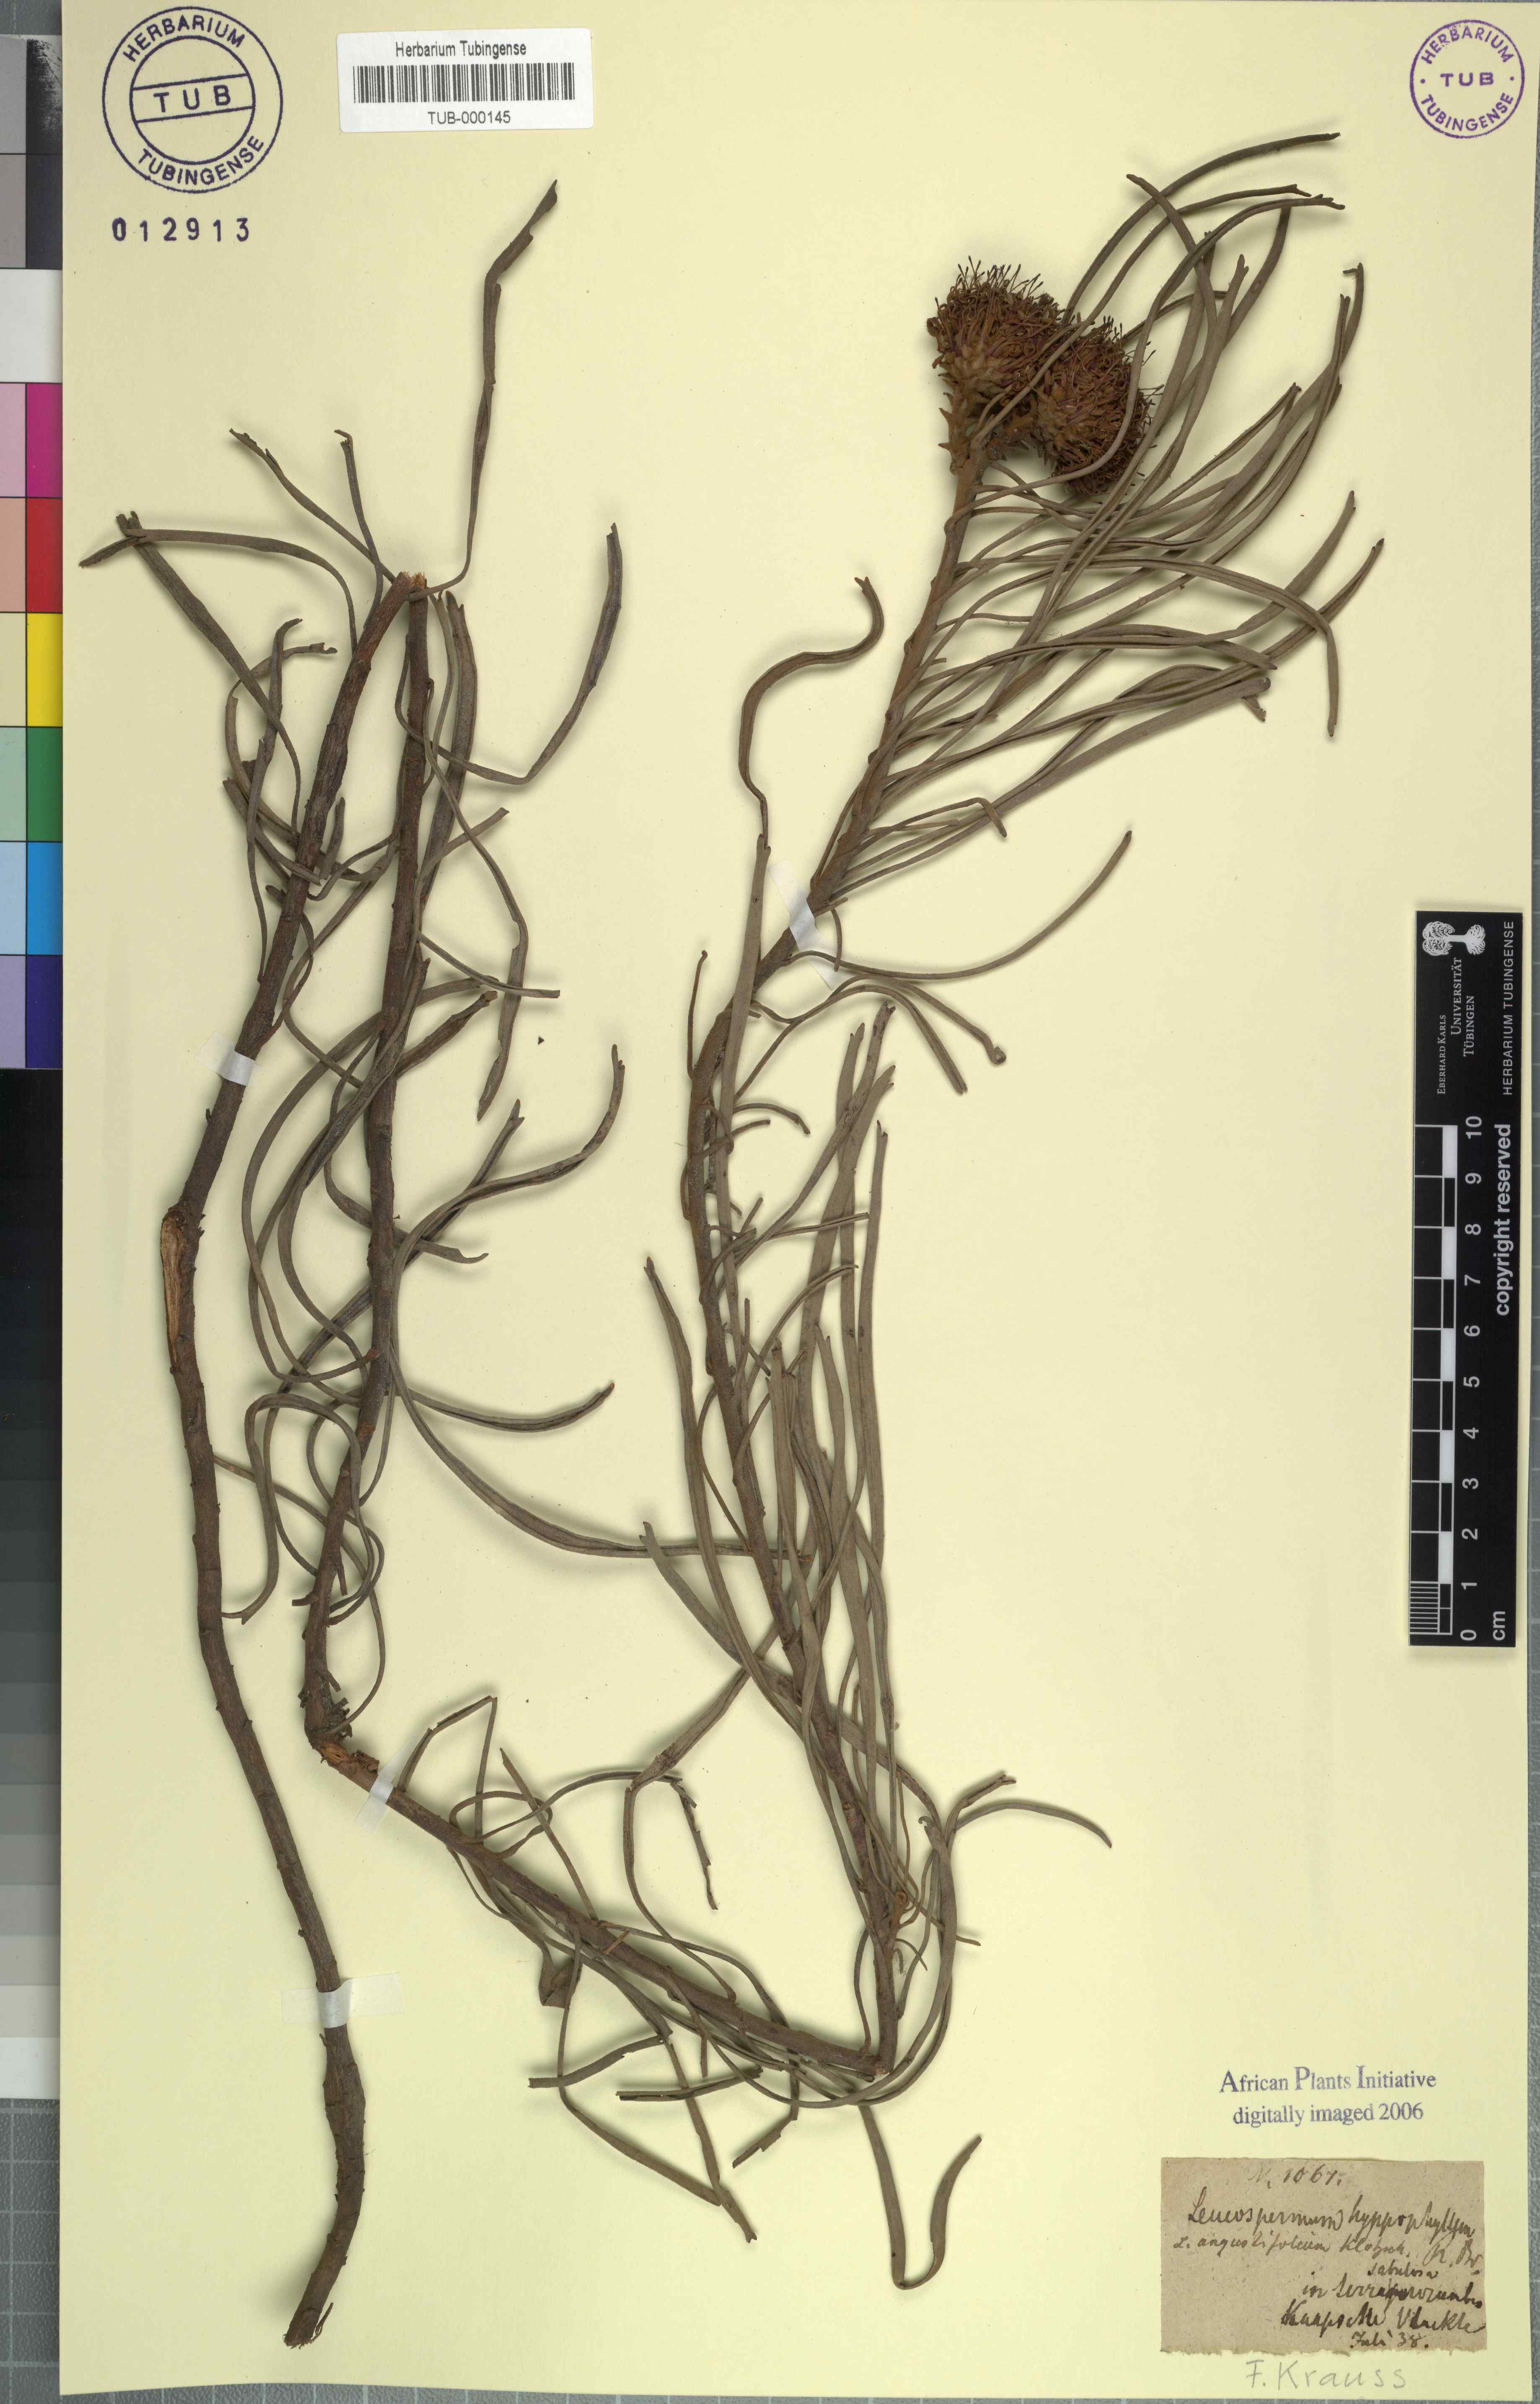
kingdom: Plantae
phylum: Tracheophyta
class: Magnoliopsida
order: Proteales
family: Proteaceae
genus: Leucospermum
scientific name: Leucospermum hypophyllocarpodendron
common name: Snakestem pincushion
